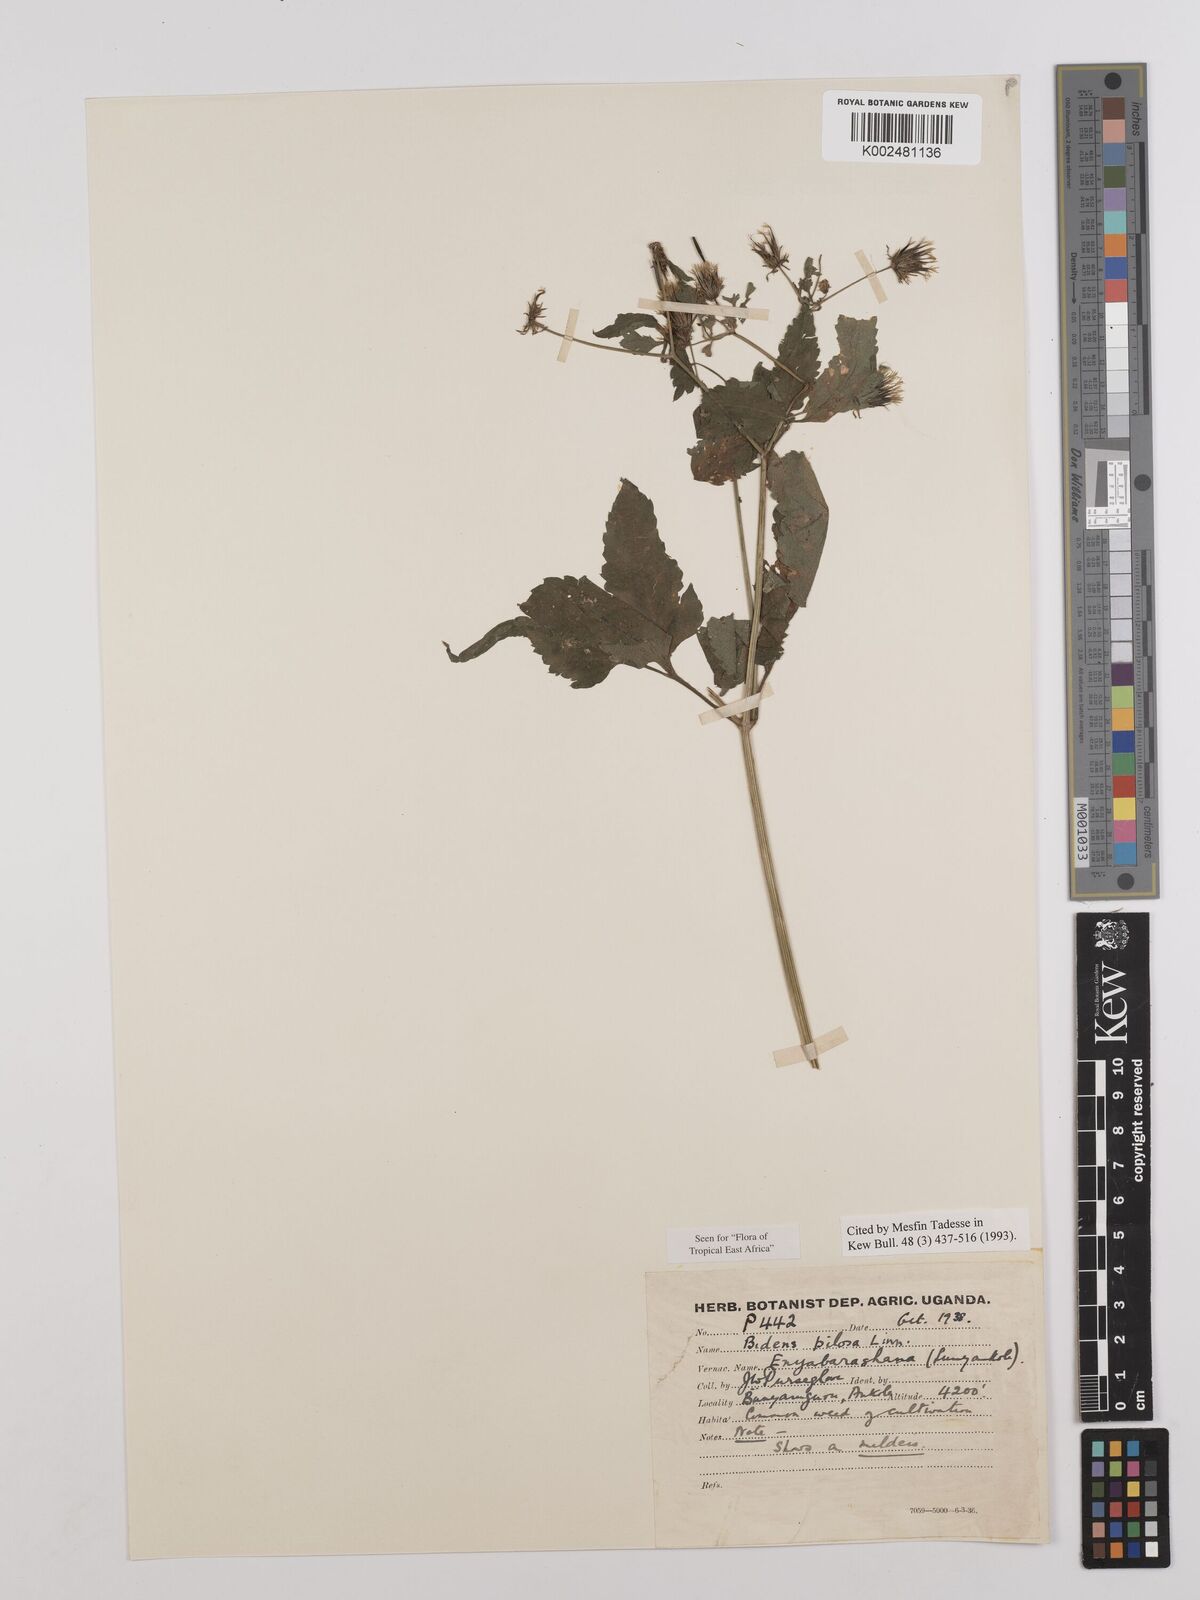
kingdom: Plantae
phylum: Tracheophyta
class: Magnoliopsida
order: Asterales
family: Asteraceae
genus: Bidens
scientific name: Bidens pilosa
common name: Black-jack
